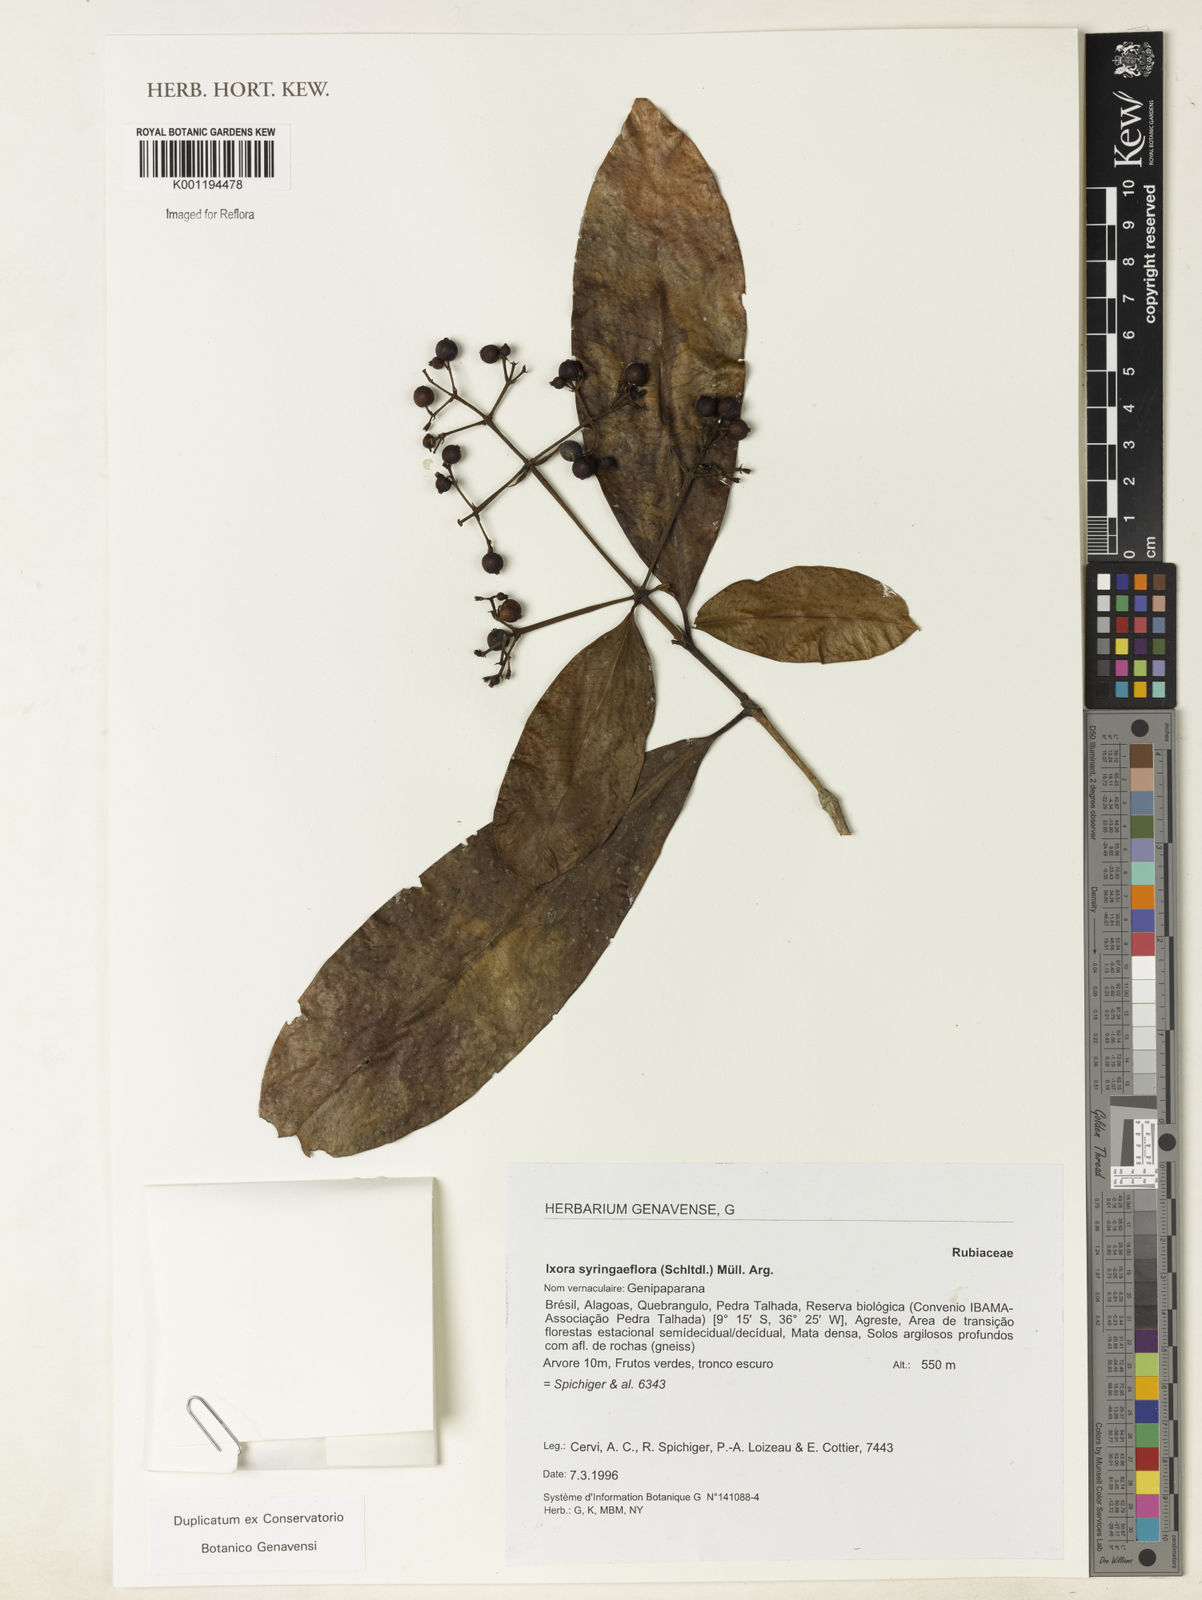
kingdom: Plantae
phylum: Tracheophyta
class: Magnoliopsida
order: Gentianales
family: Rubiaceae
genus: Ixora
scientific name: Ixora
